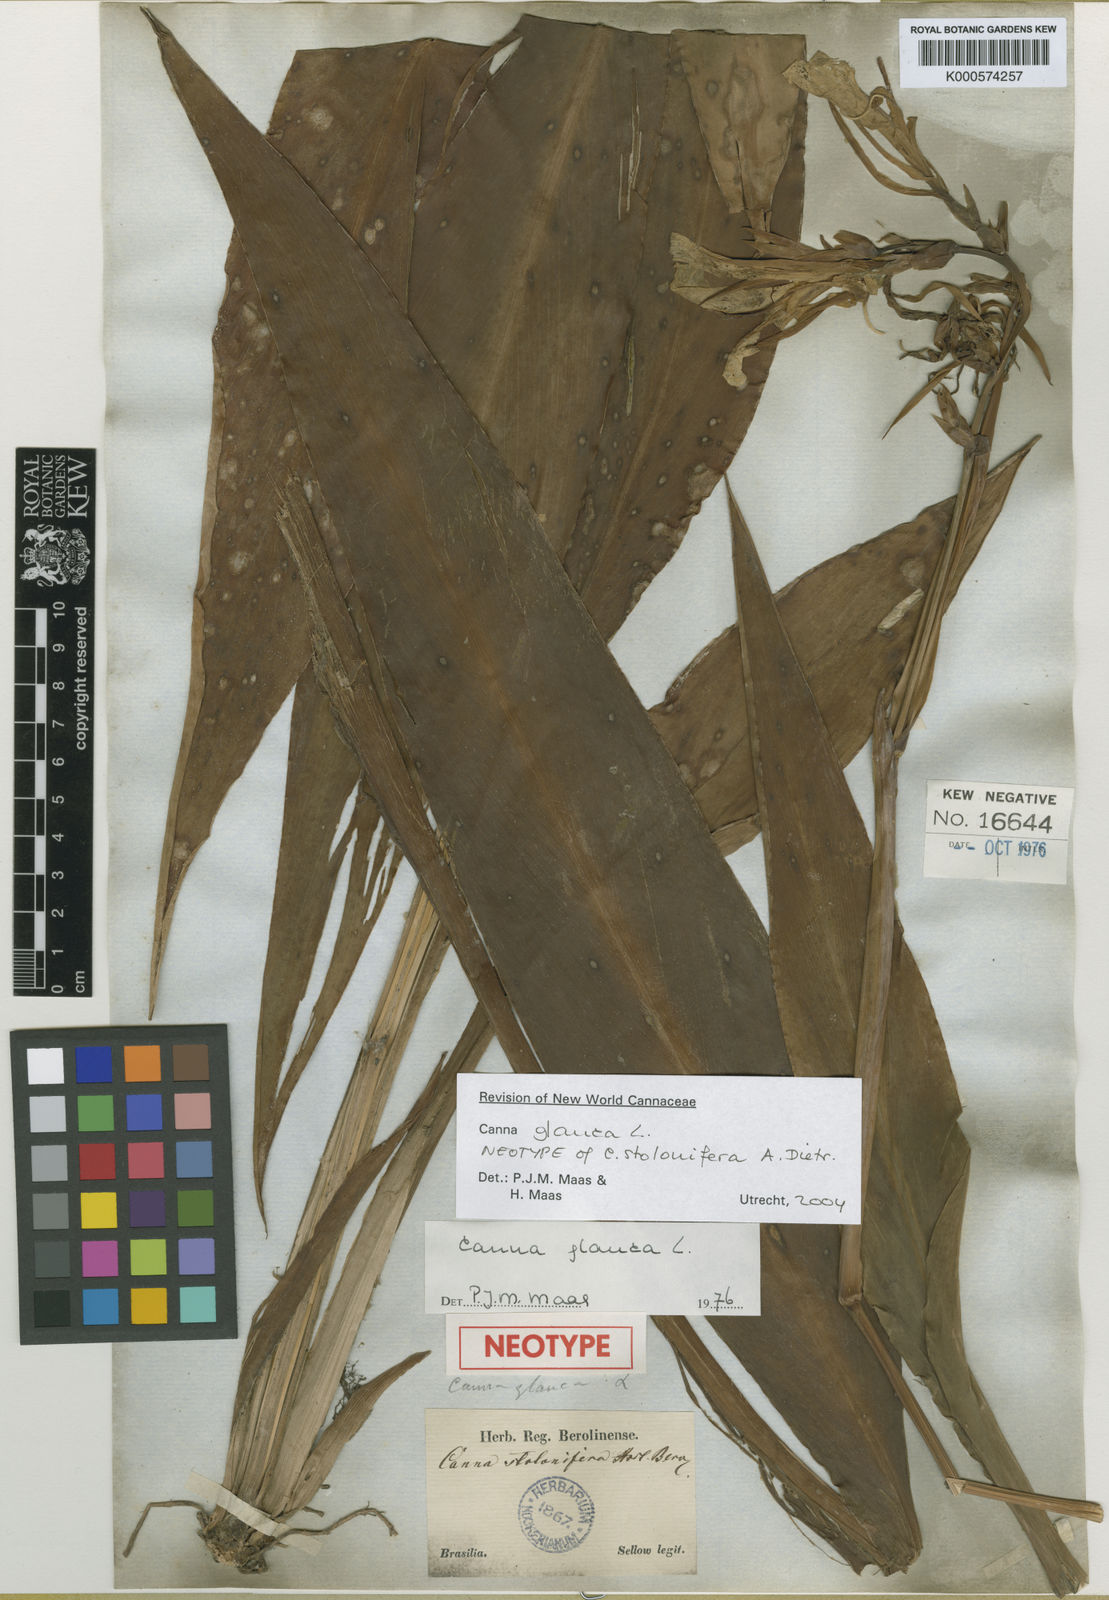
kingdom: Plantae
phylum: Tracheophyta
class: Liliopsida
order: Zingiberales
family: Cannaceae
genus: Canna
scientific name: Canna glauca
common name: Louisiana canna
